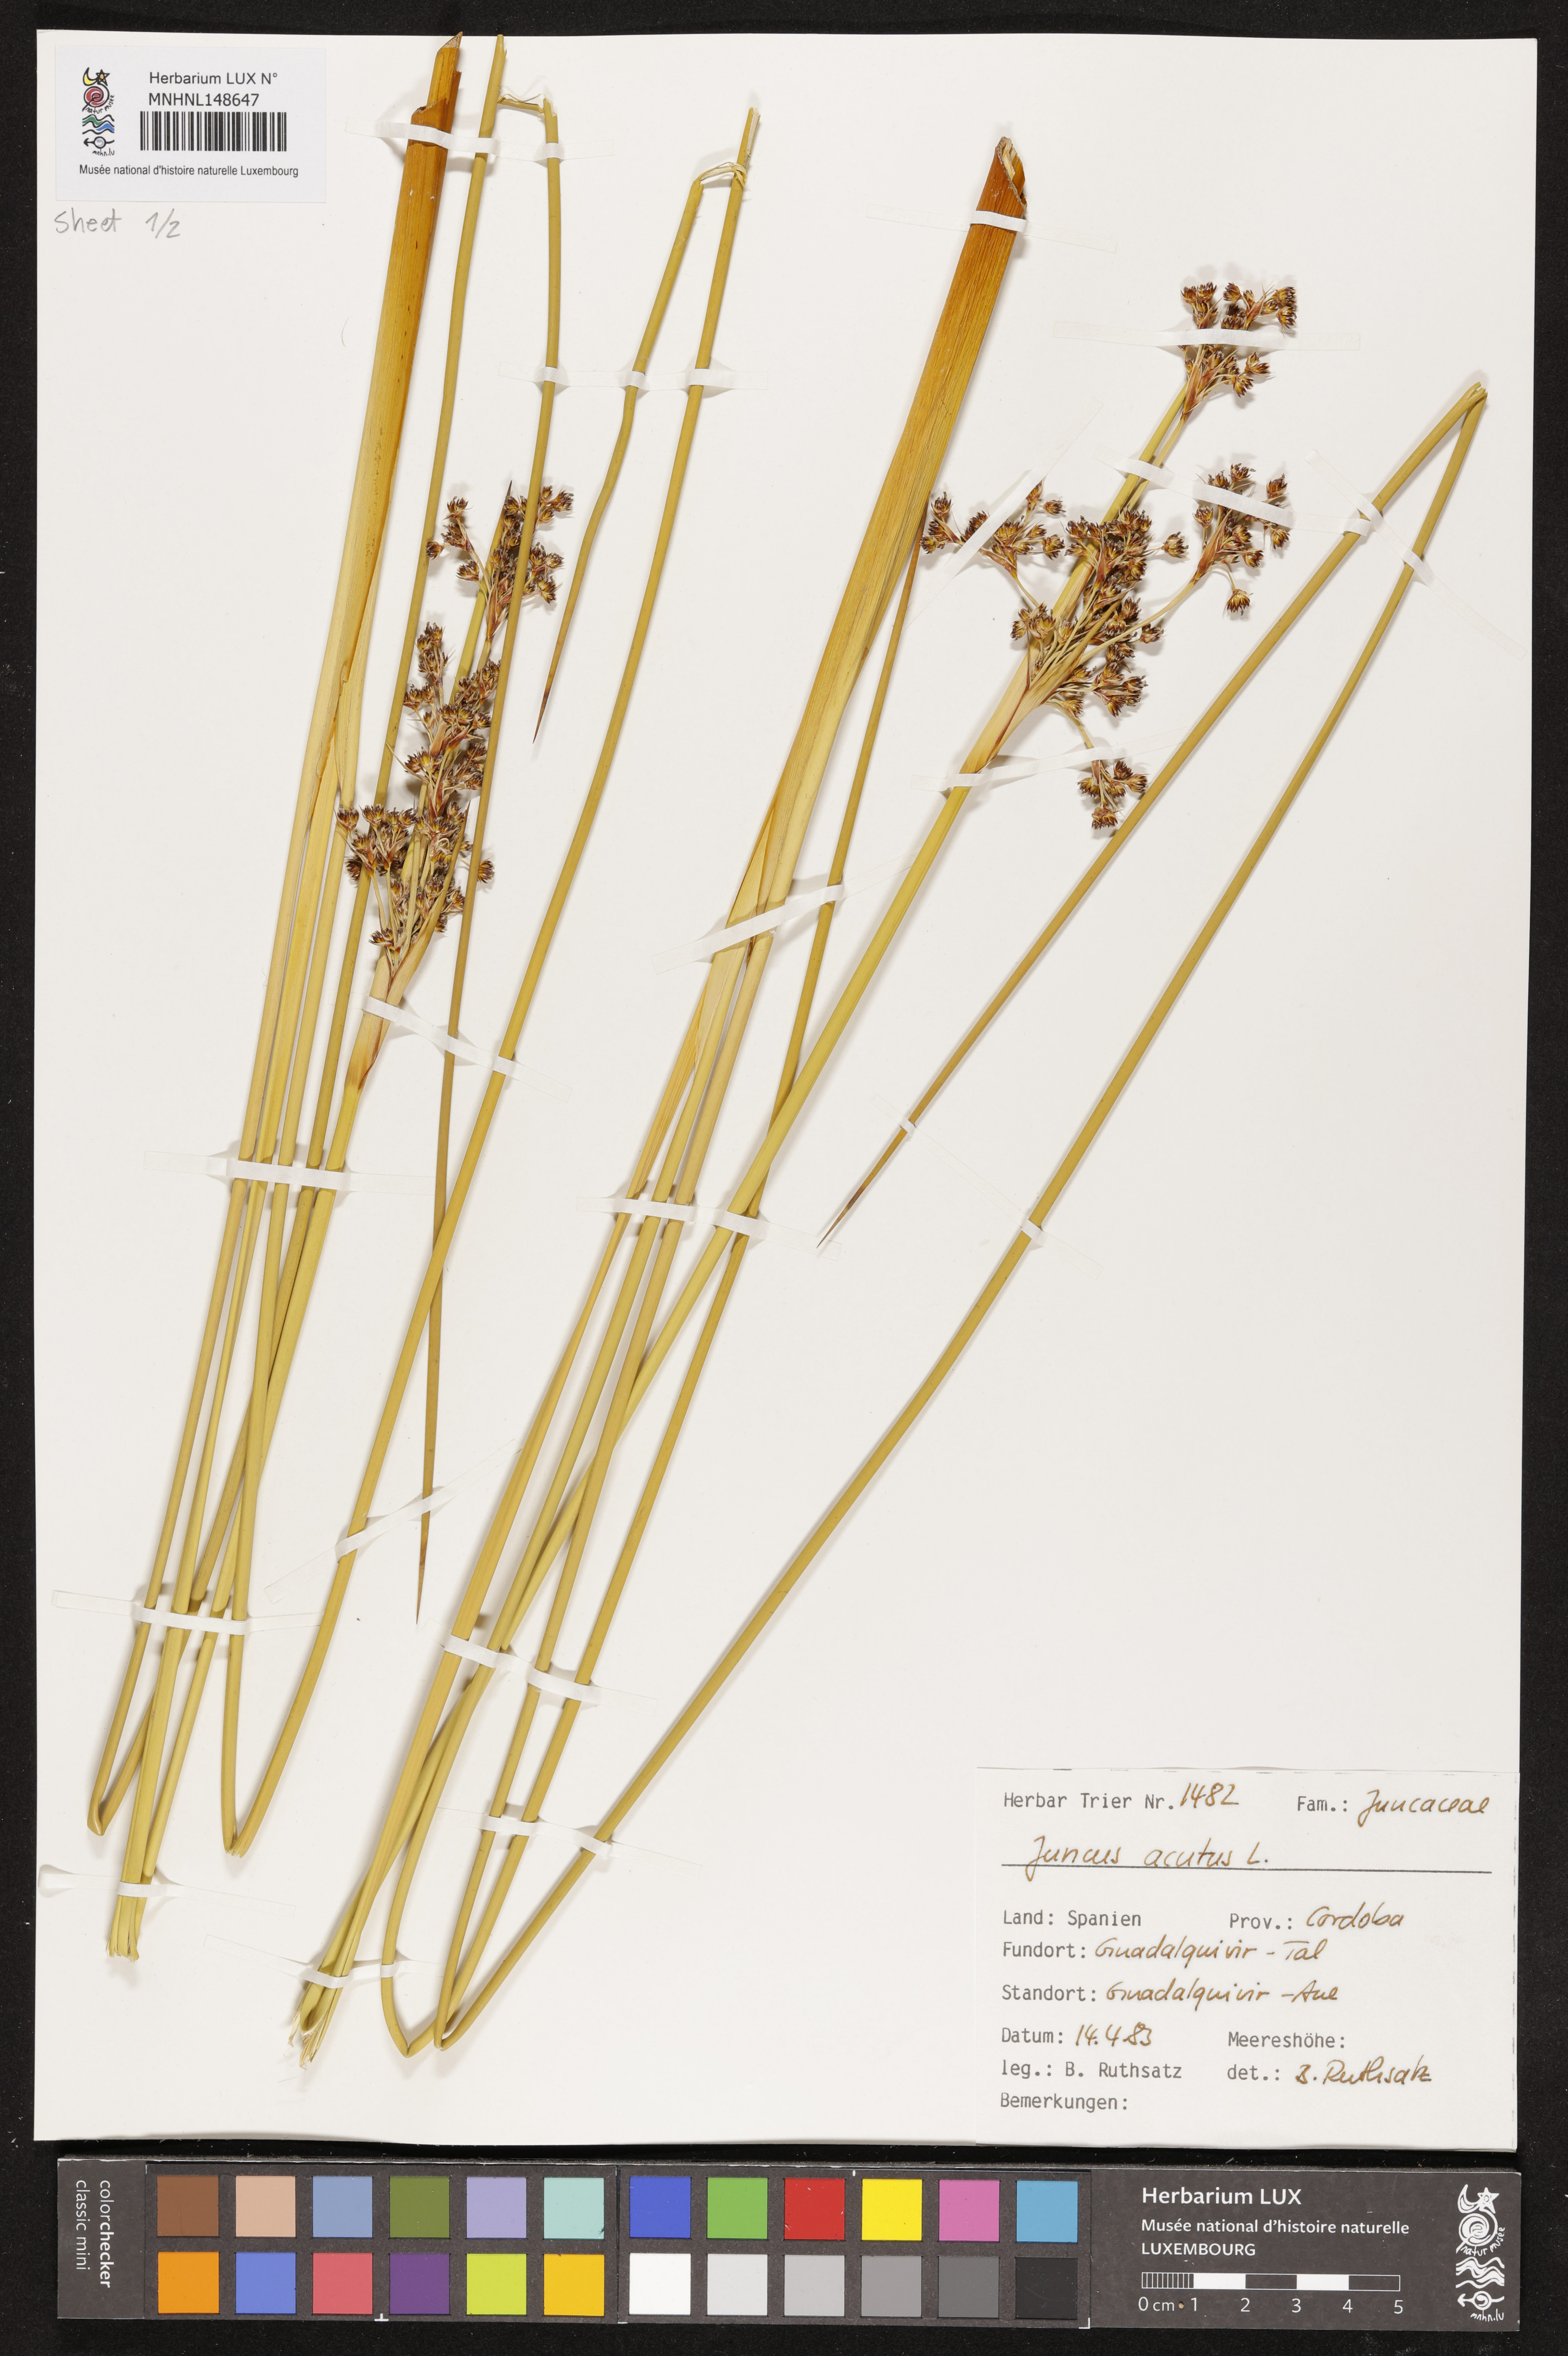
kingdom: Plantae
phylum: Tracheophyta
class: Liliopsida
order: Poales
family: Juncaceae
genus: Juncus
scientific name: Juncus acutus
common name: Sharp rush
